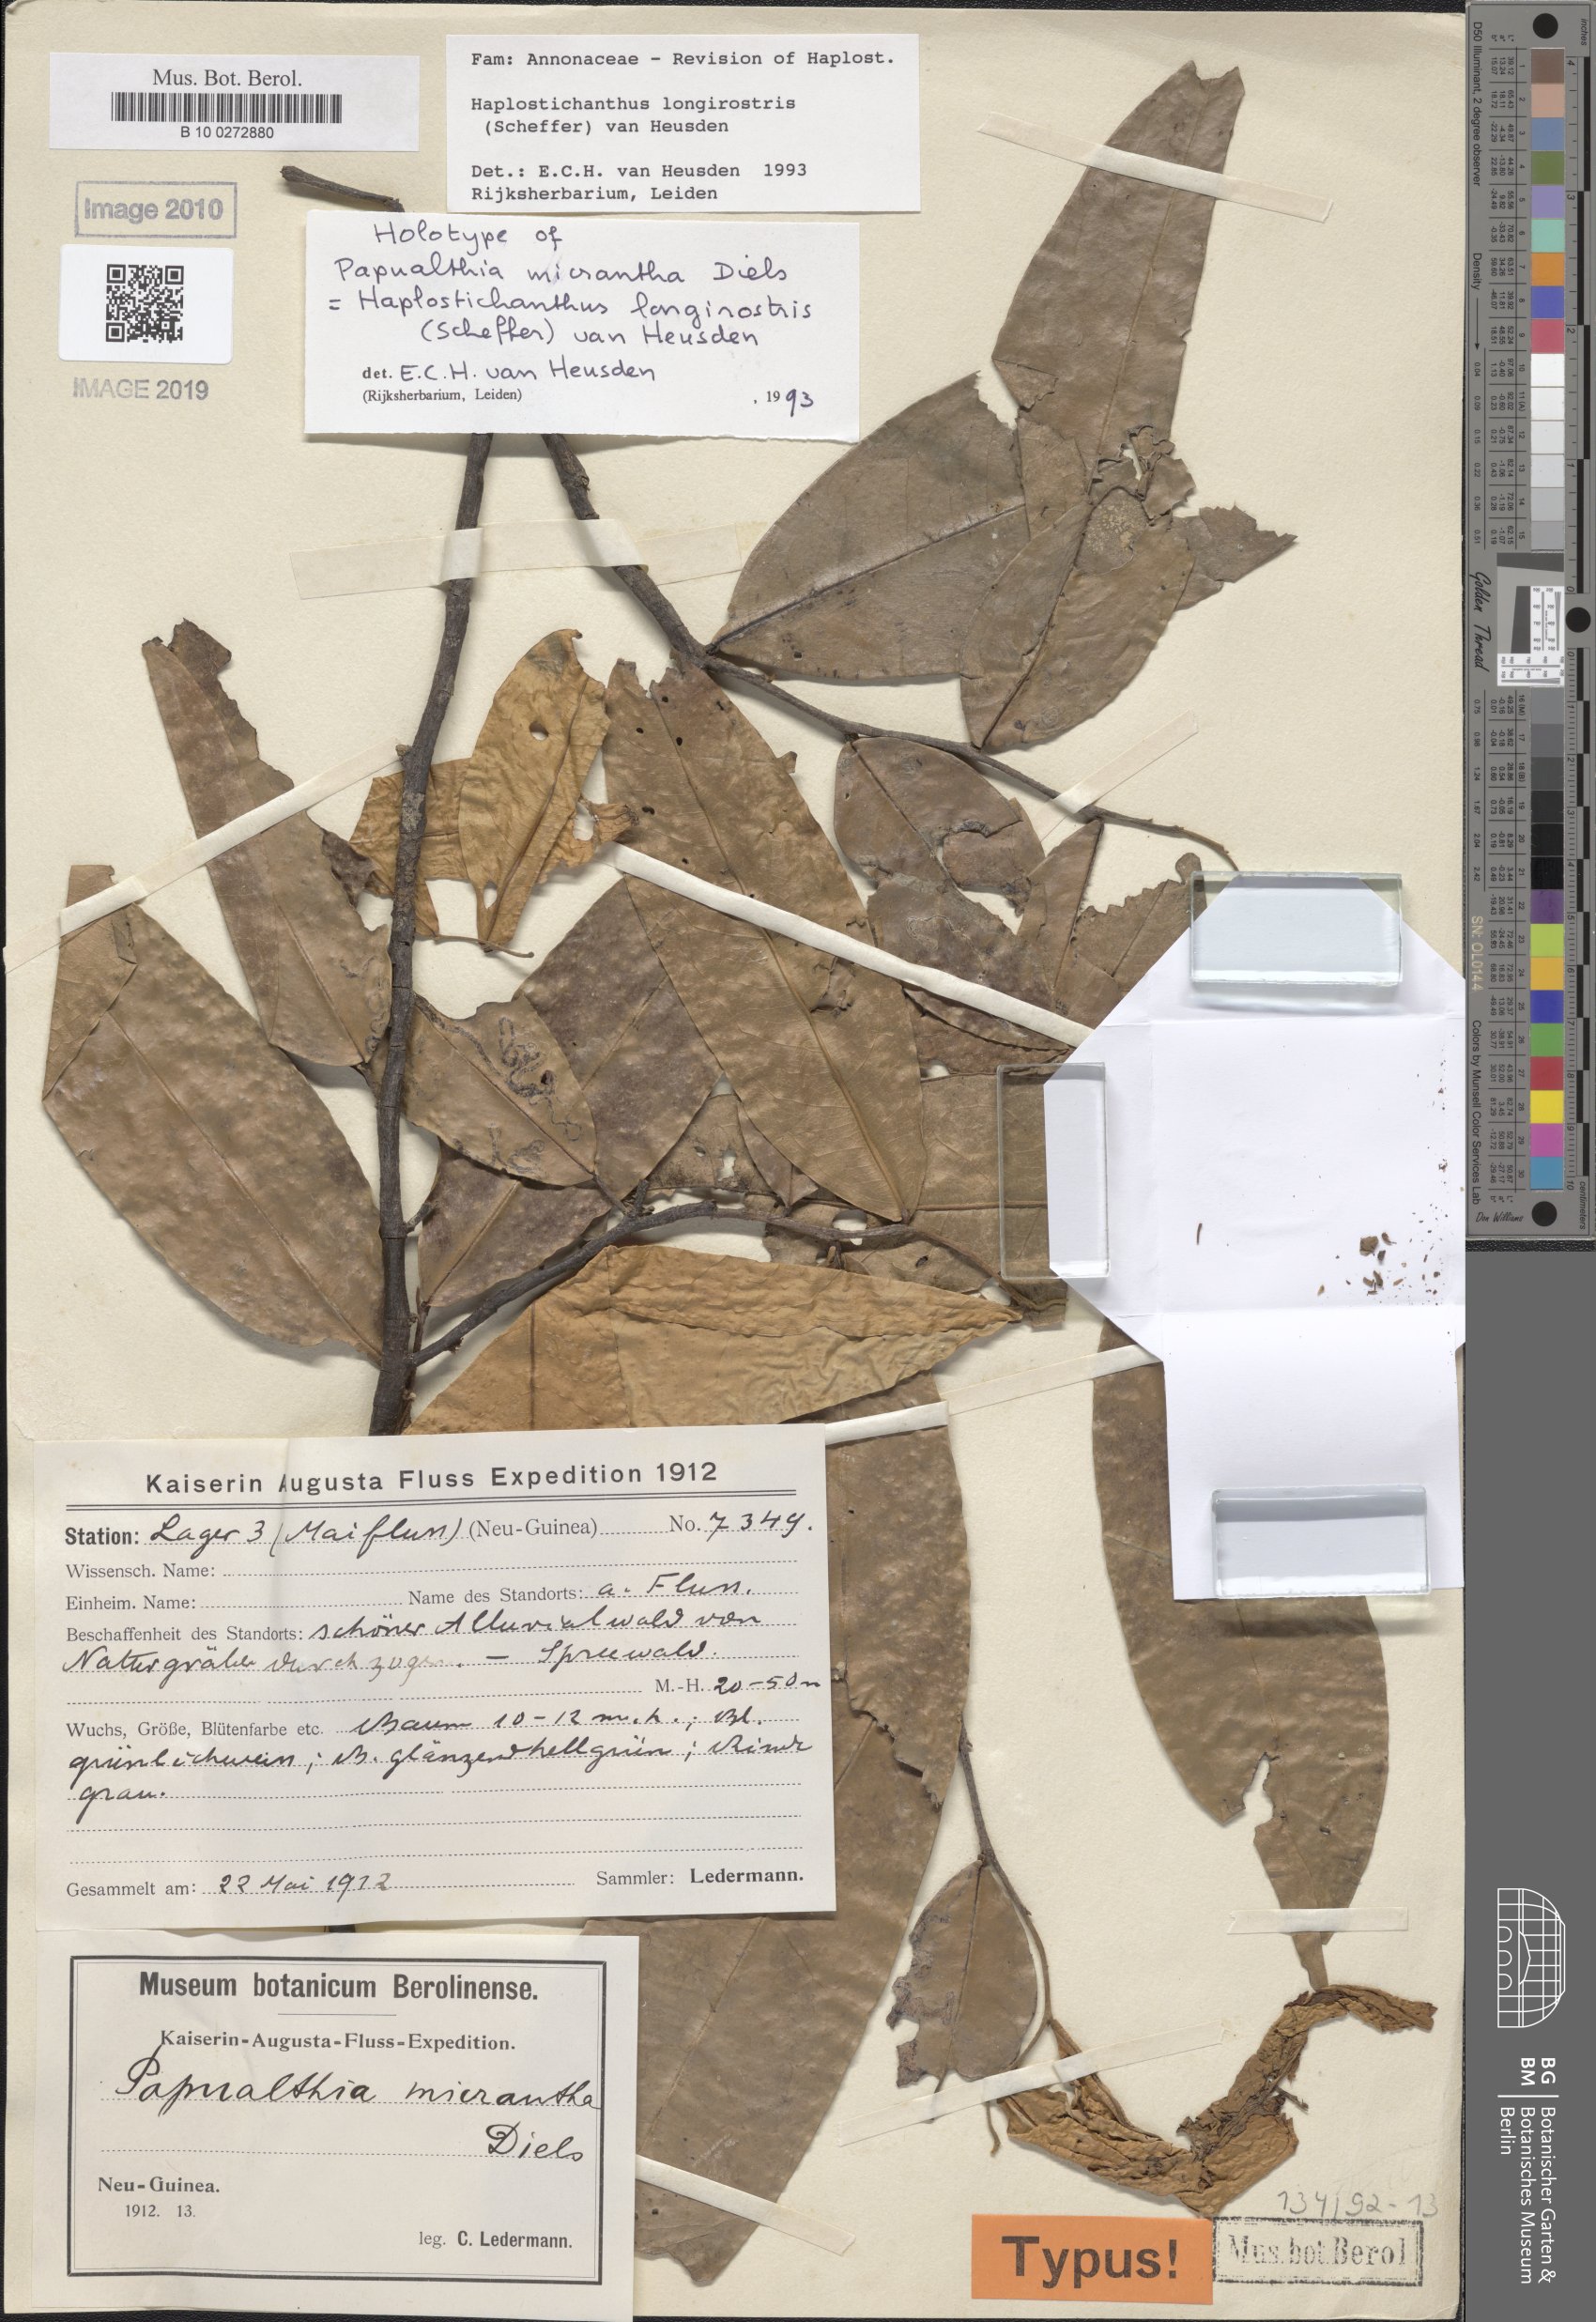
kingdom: Plantae
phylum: Tracheophyta
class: Magnoliopsida
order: Magnoliales
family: Annonaceae
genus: Haplostichanthus
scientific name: Haplostichanthus longirostris
